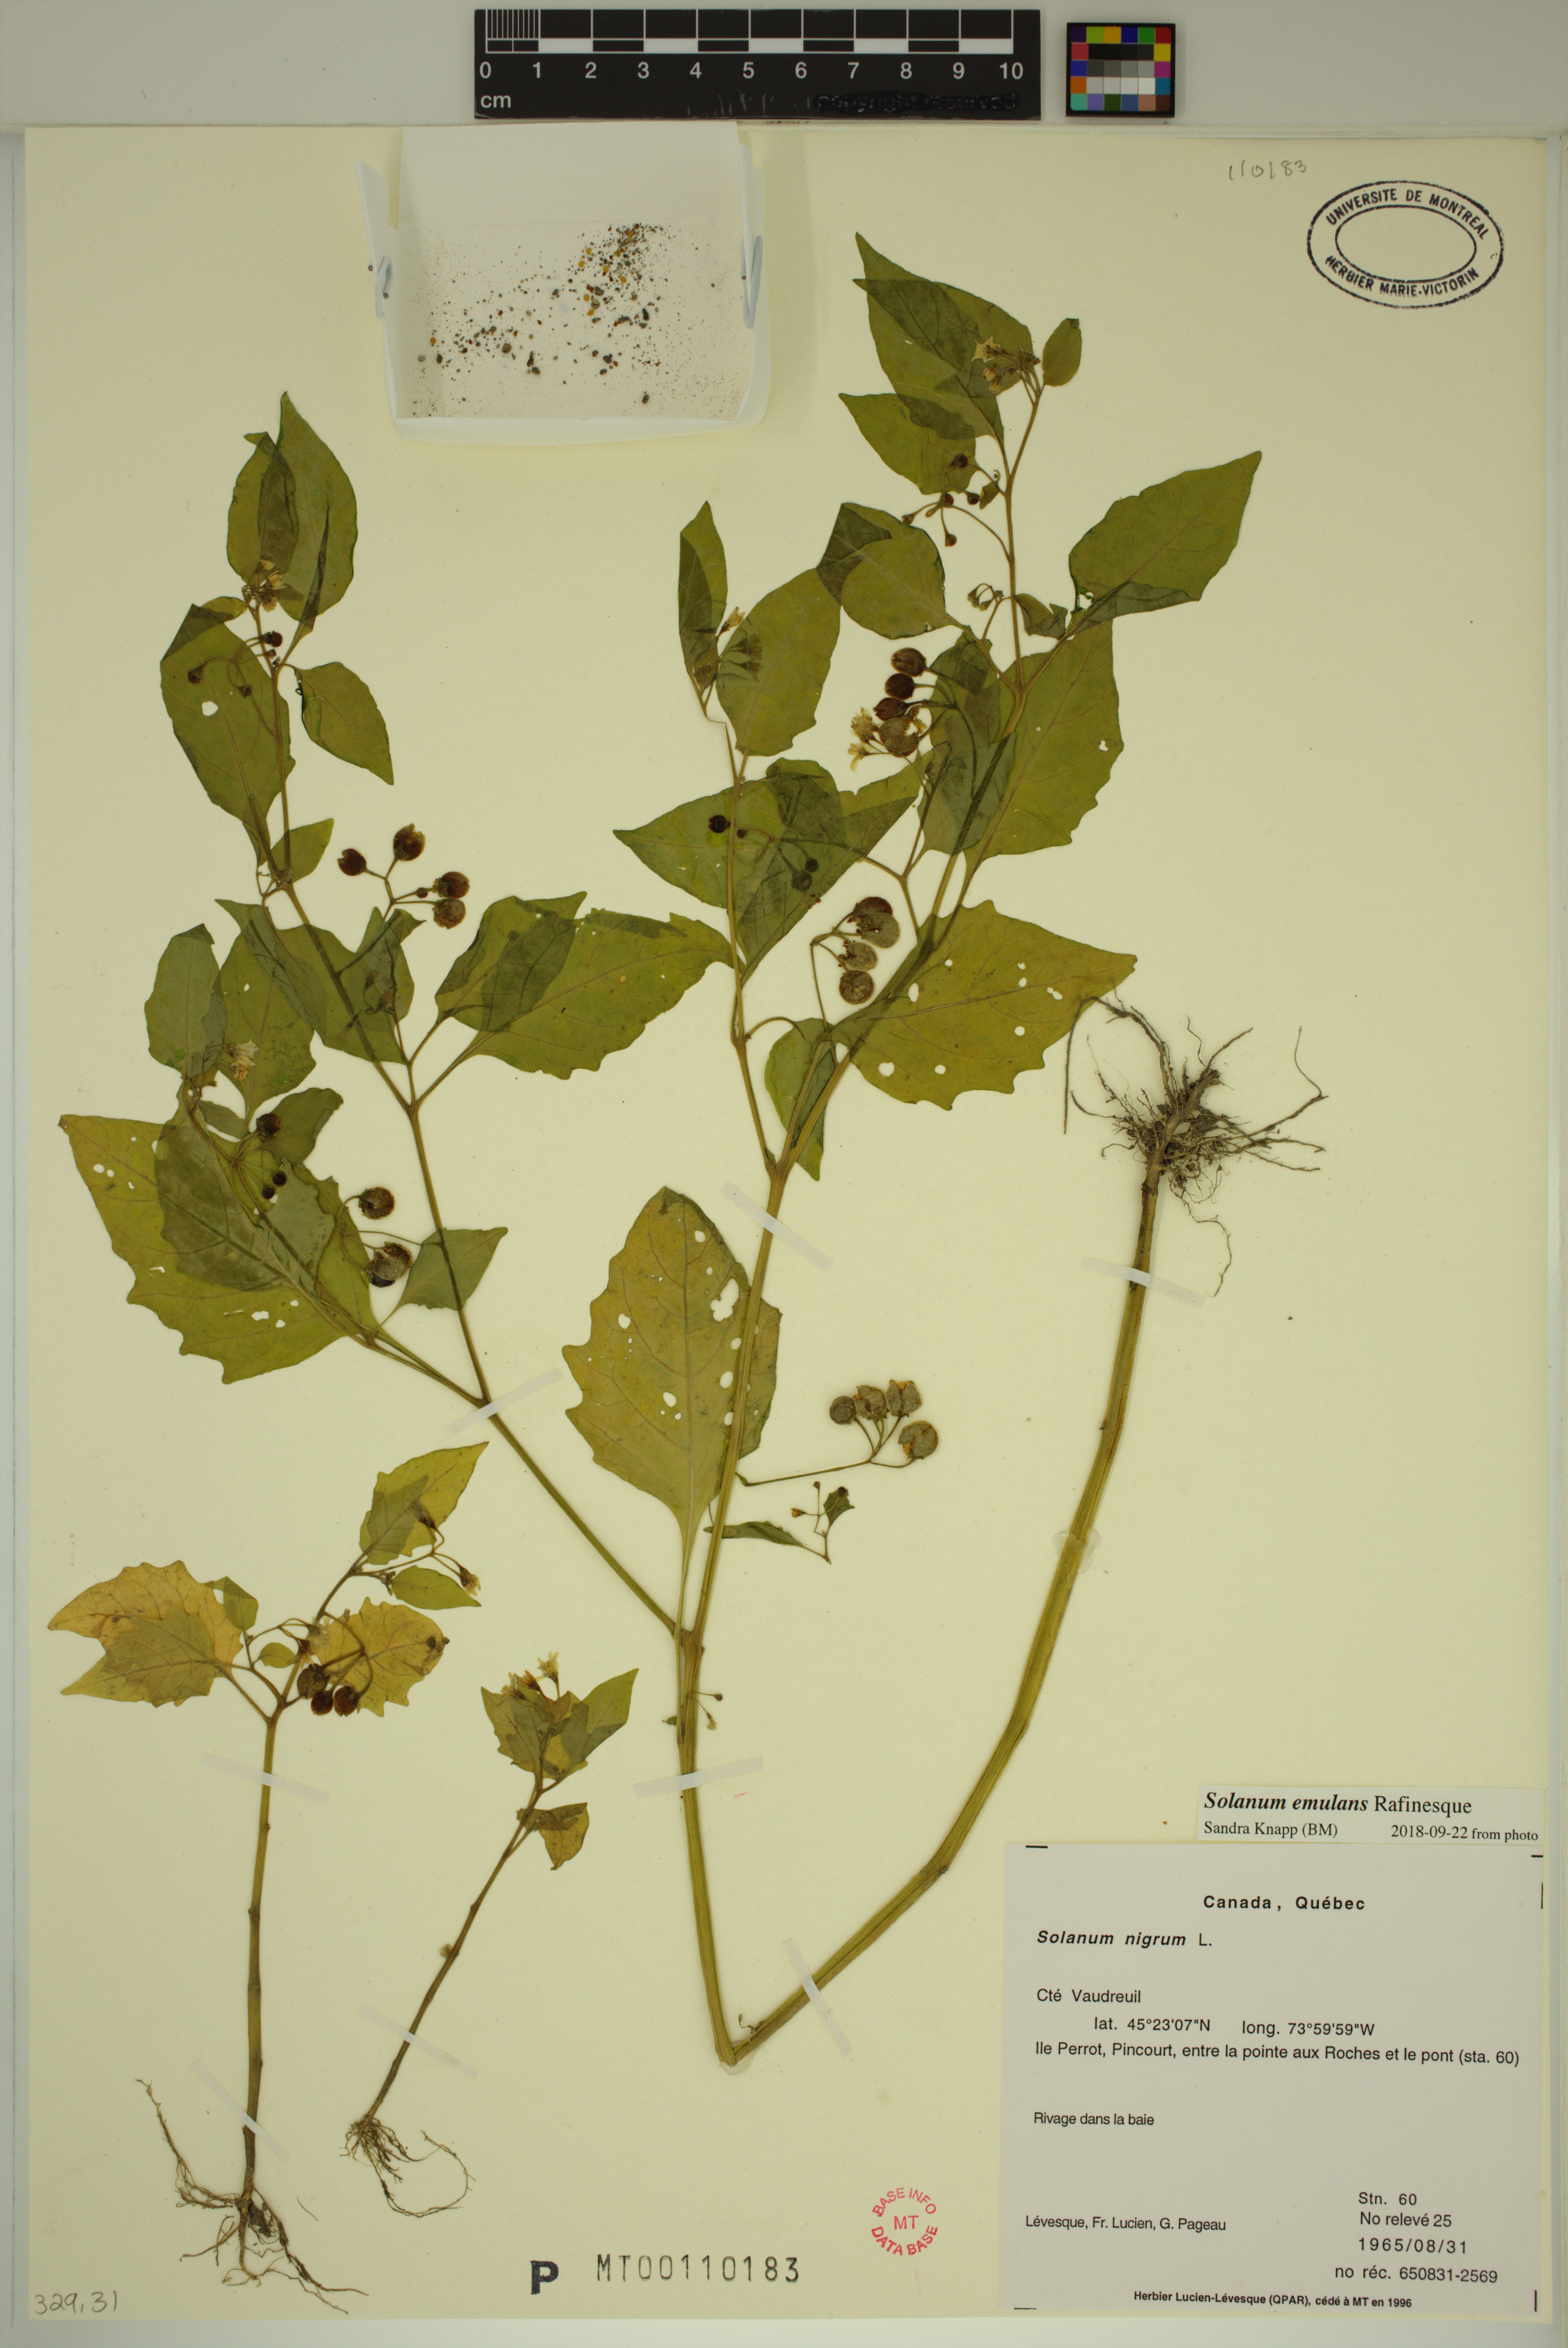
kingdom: Plantae
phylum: Tracheophyta
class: Magnoliopsida
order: Solanales
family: Solanaceae
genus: Solanum
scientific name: Solanum emulans
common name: Eastern black nightshade
